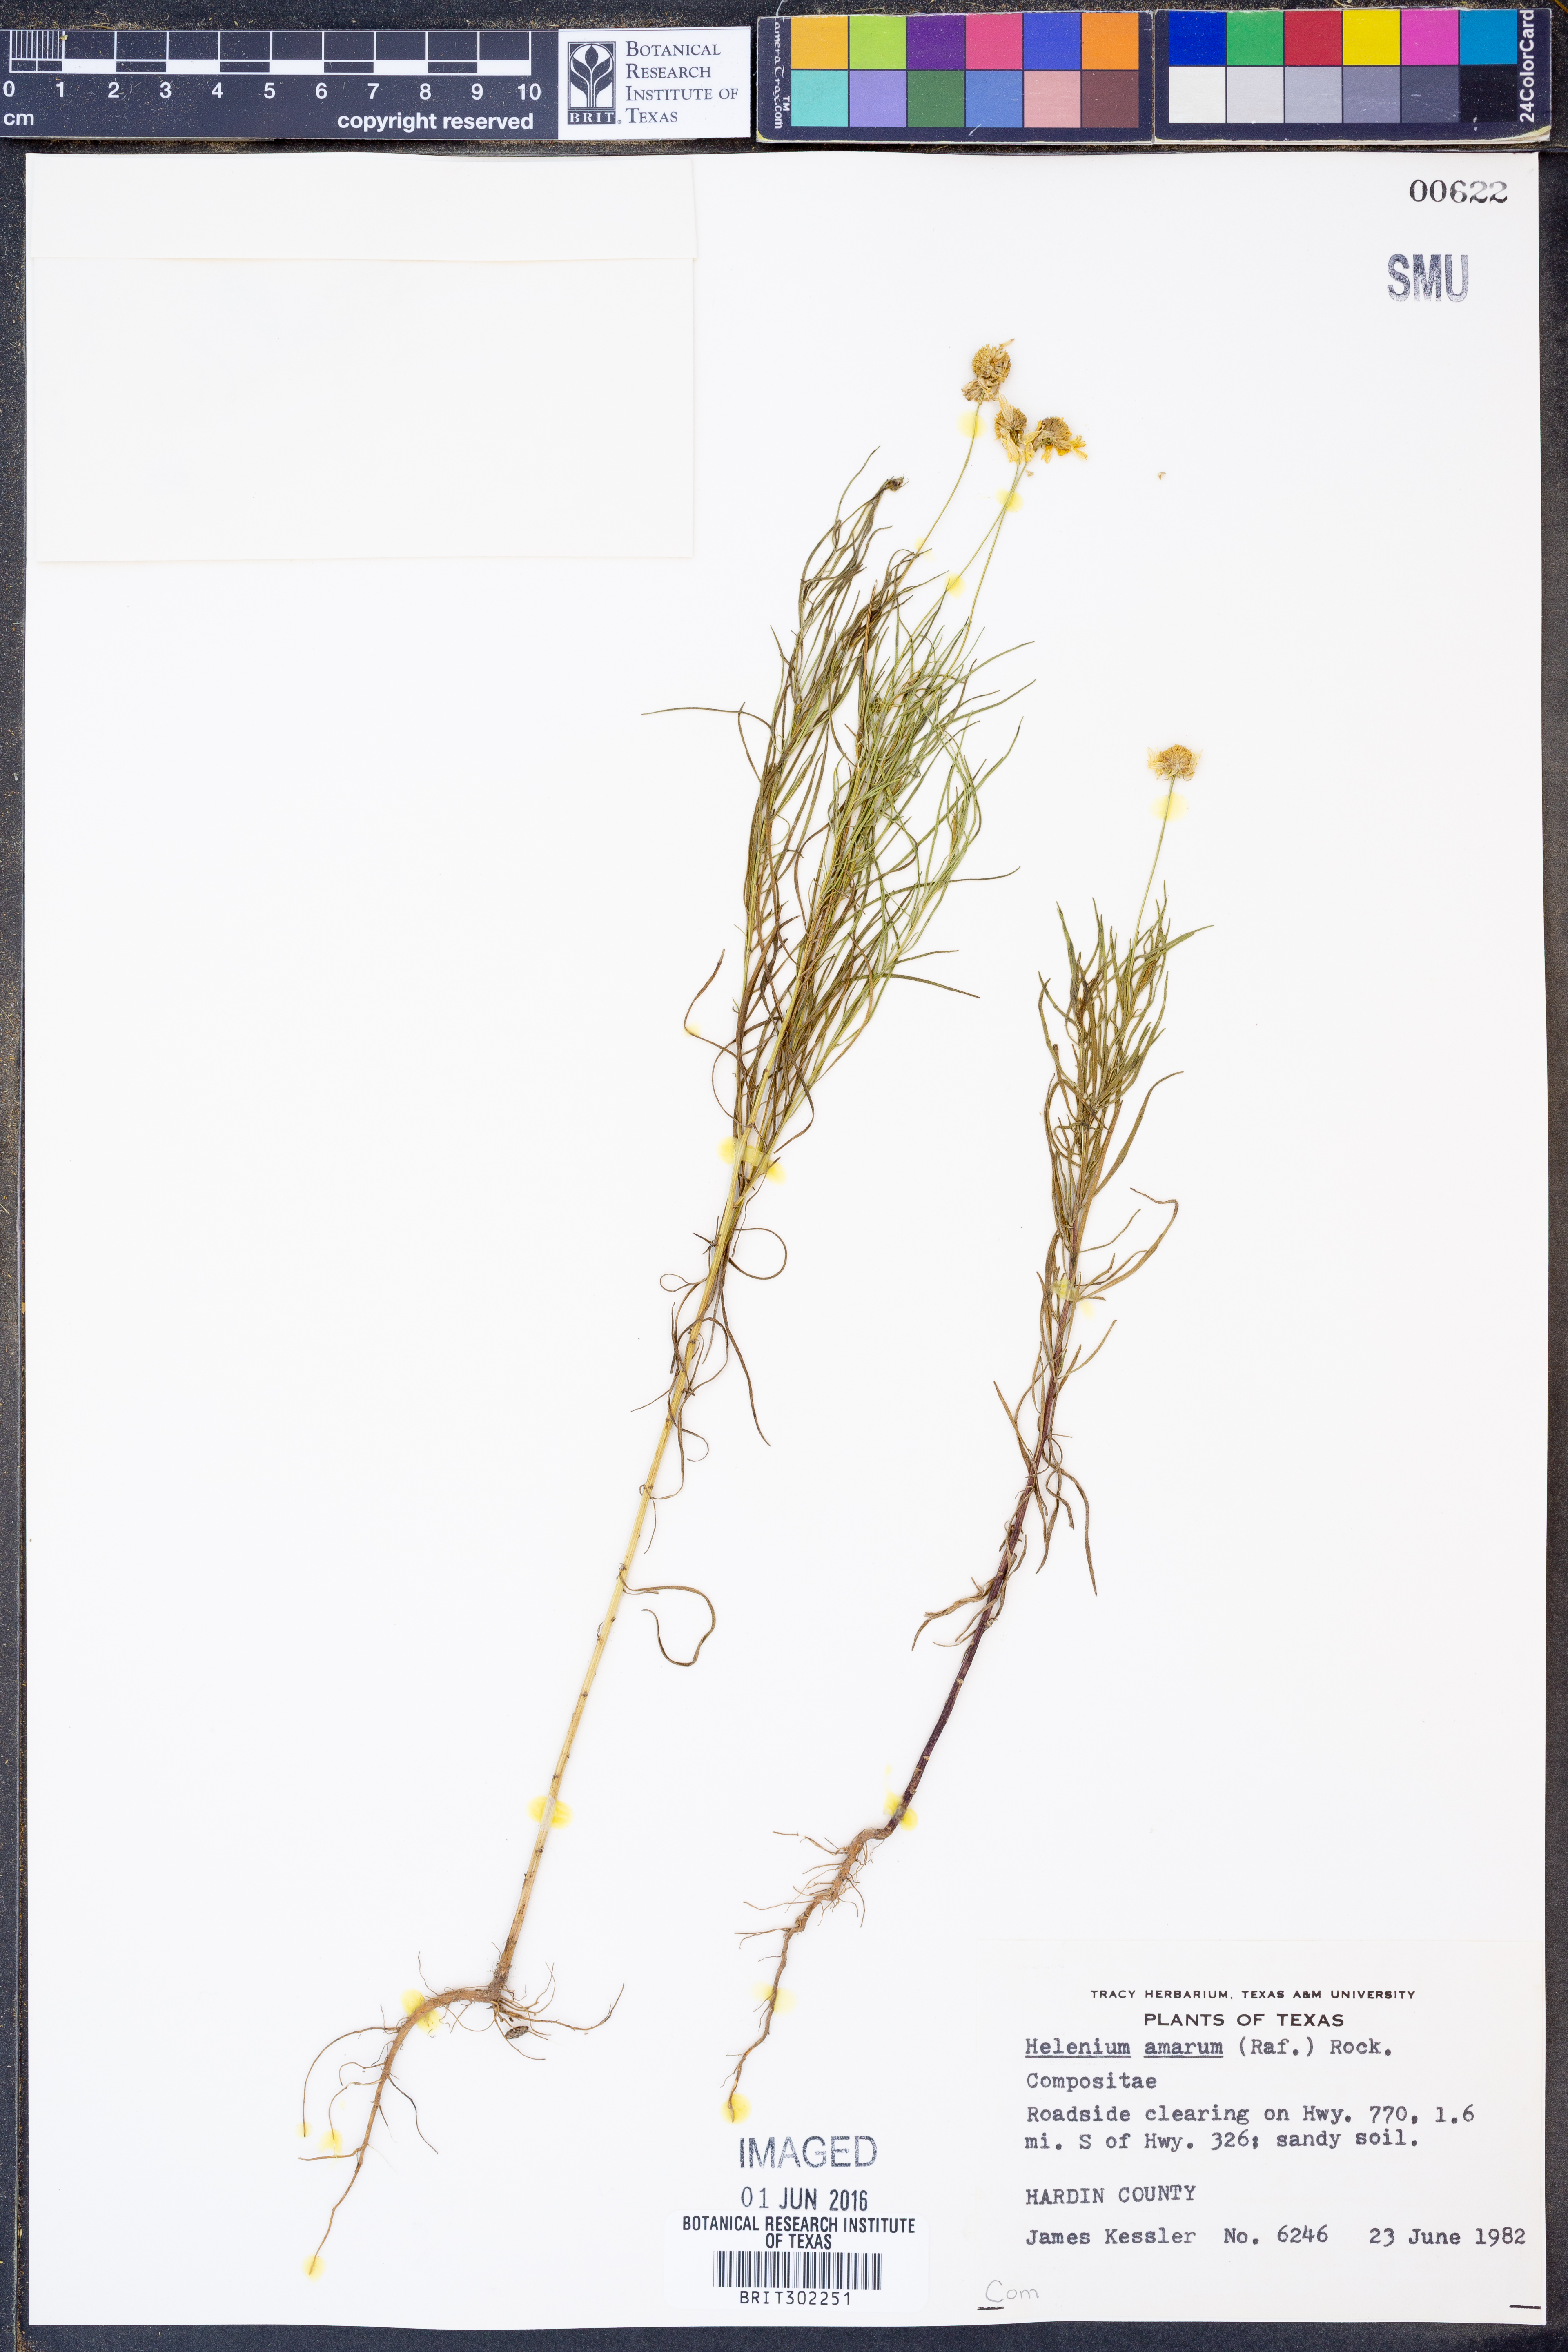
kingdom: Plantae
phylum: Tracheophyta
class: Magnoliopsida
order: Asterales
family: Asteraceae
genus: Helenium
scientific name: Helenium amarum
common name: Bitter sneezeweed
